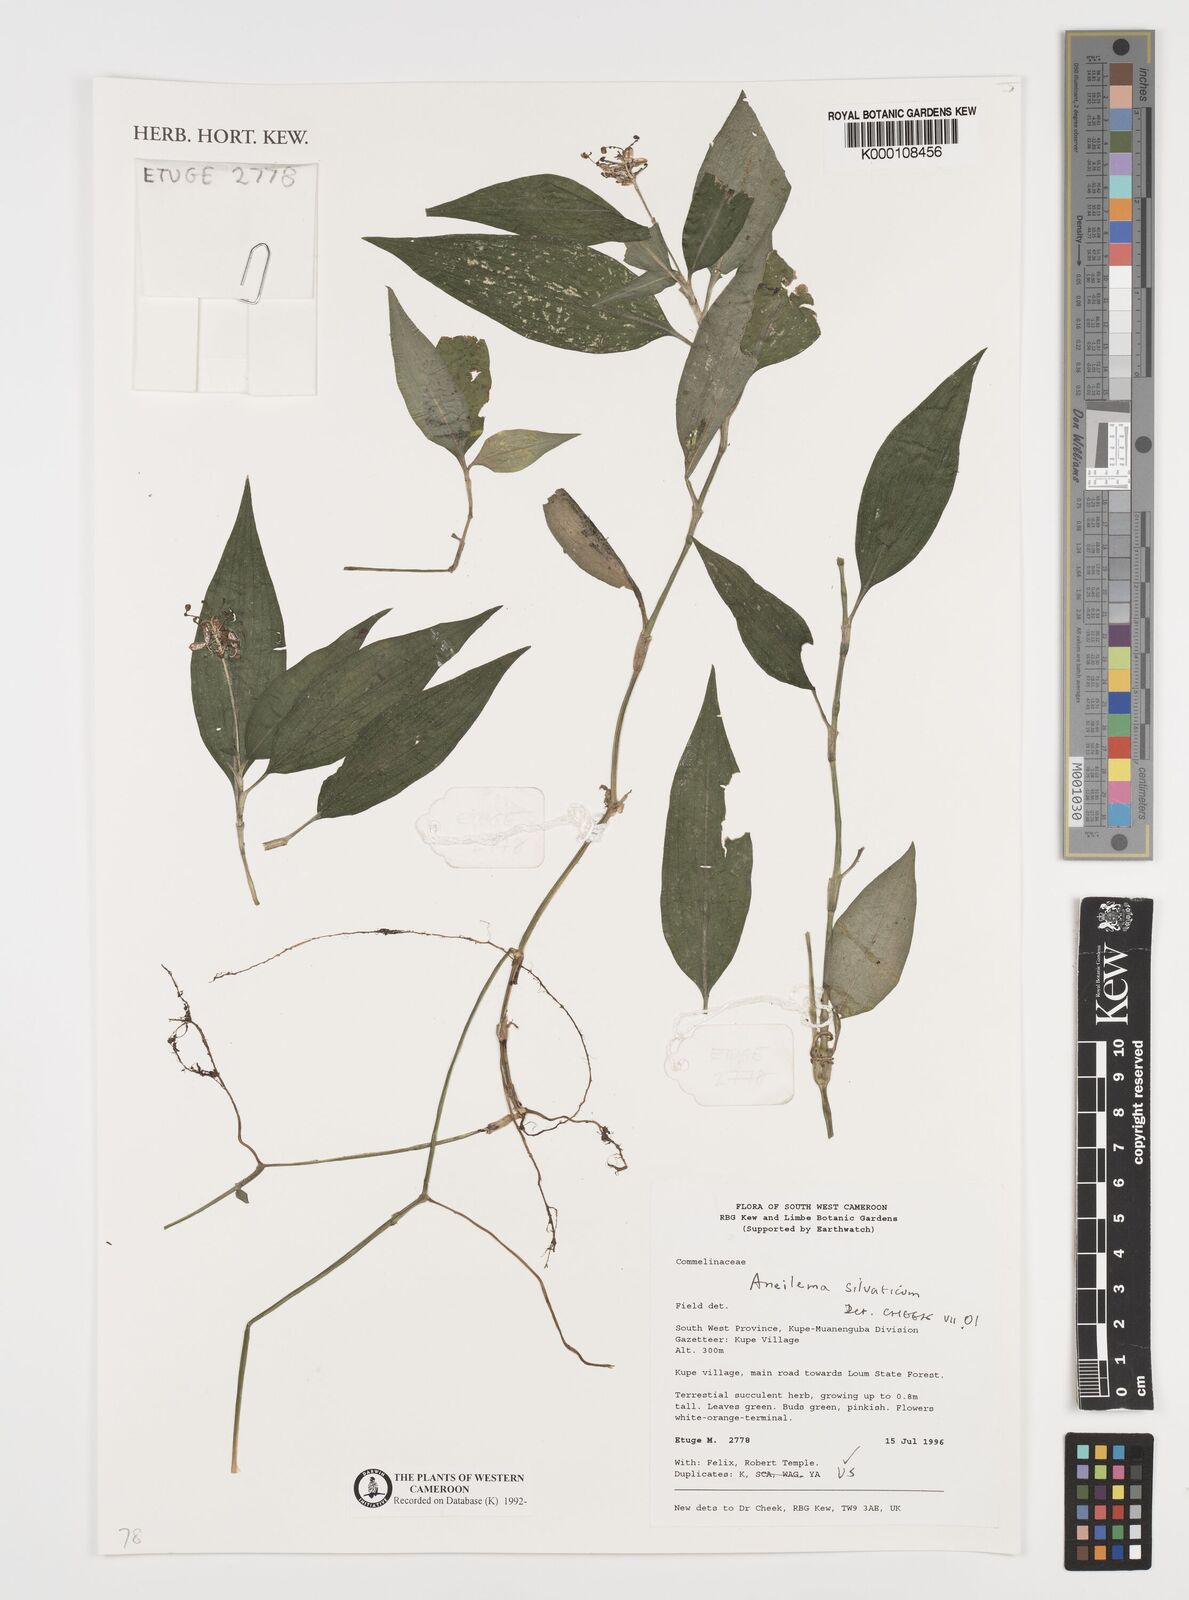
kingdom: Plantae
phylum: Tracheophyta
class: Liliopsida
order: Commelinales
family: Commelinaceae
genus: Aneilema
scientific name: Aneilema silvaticum
